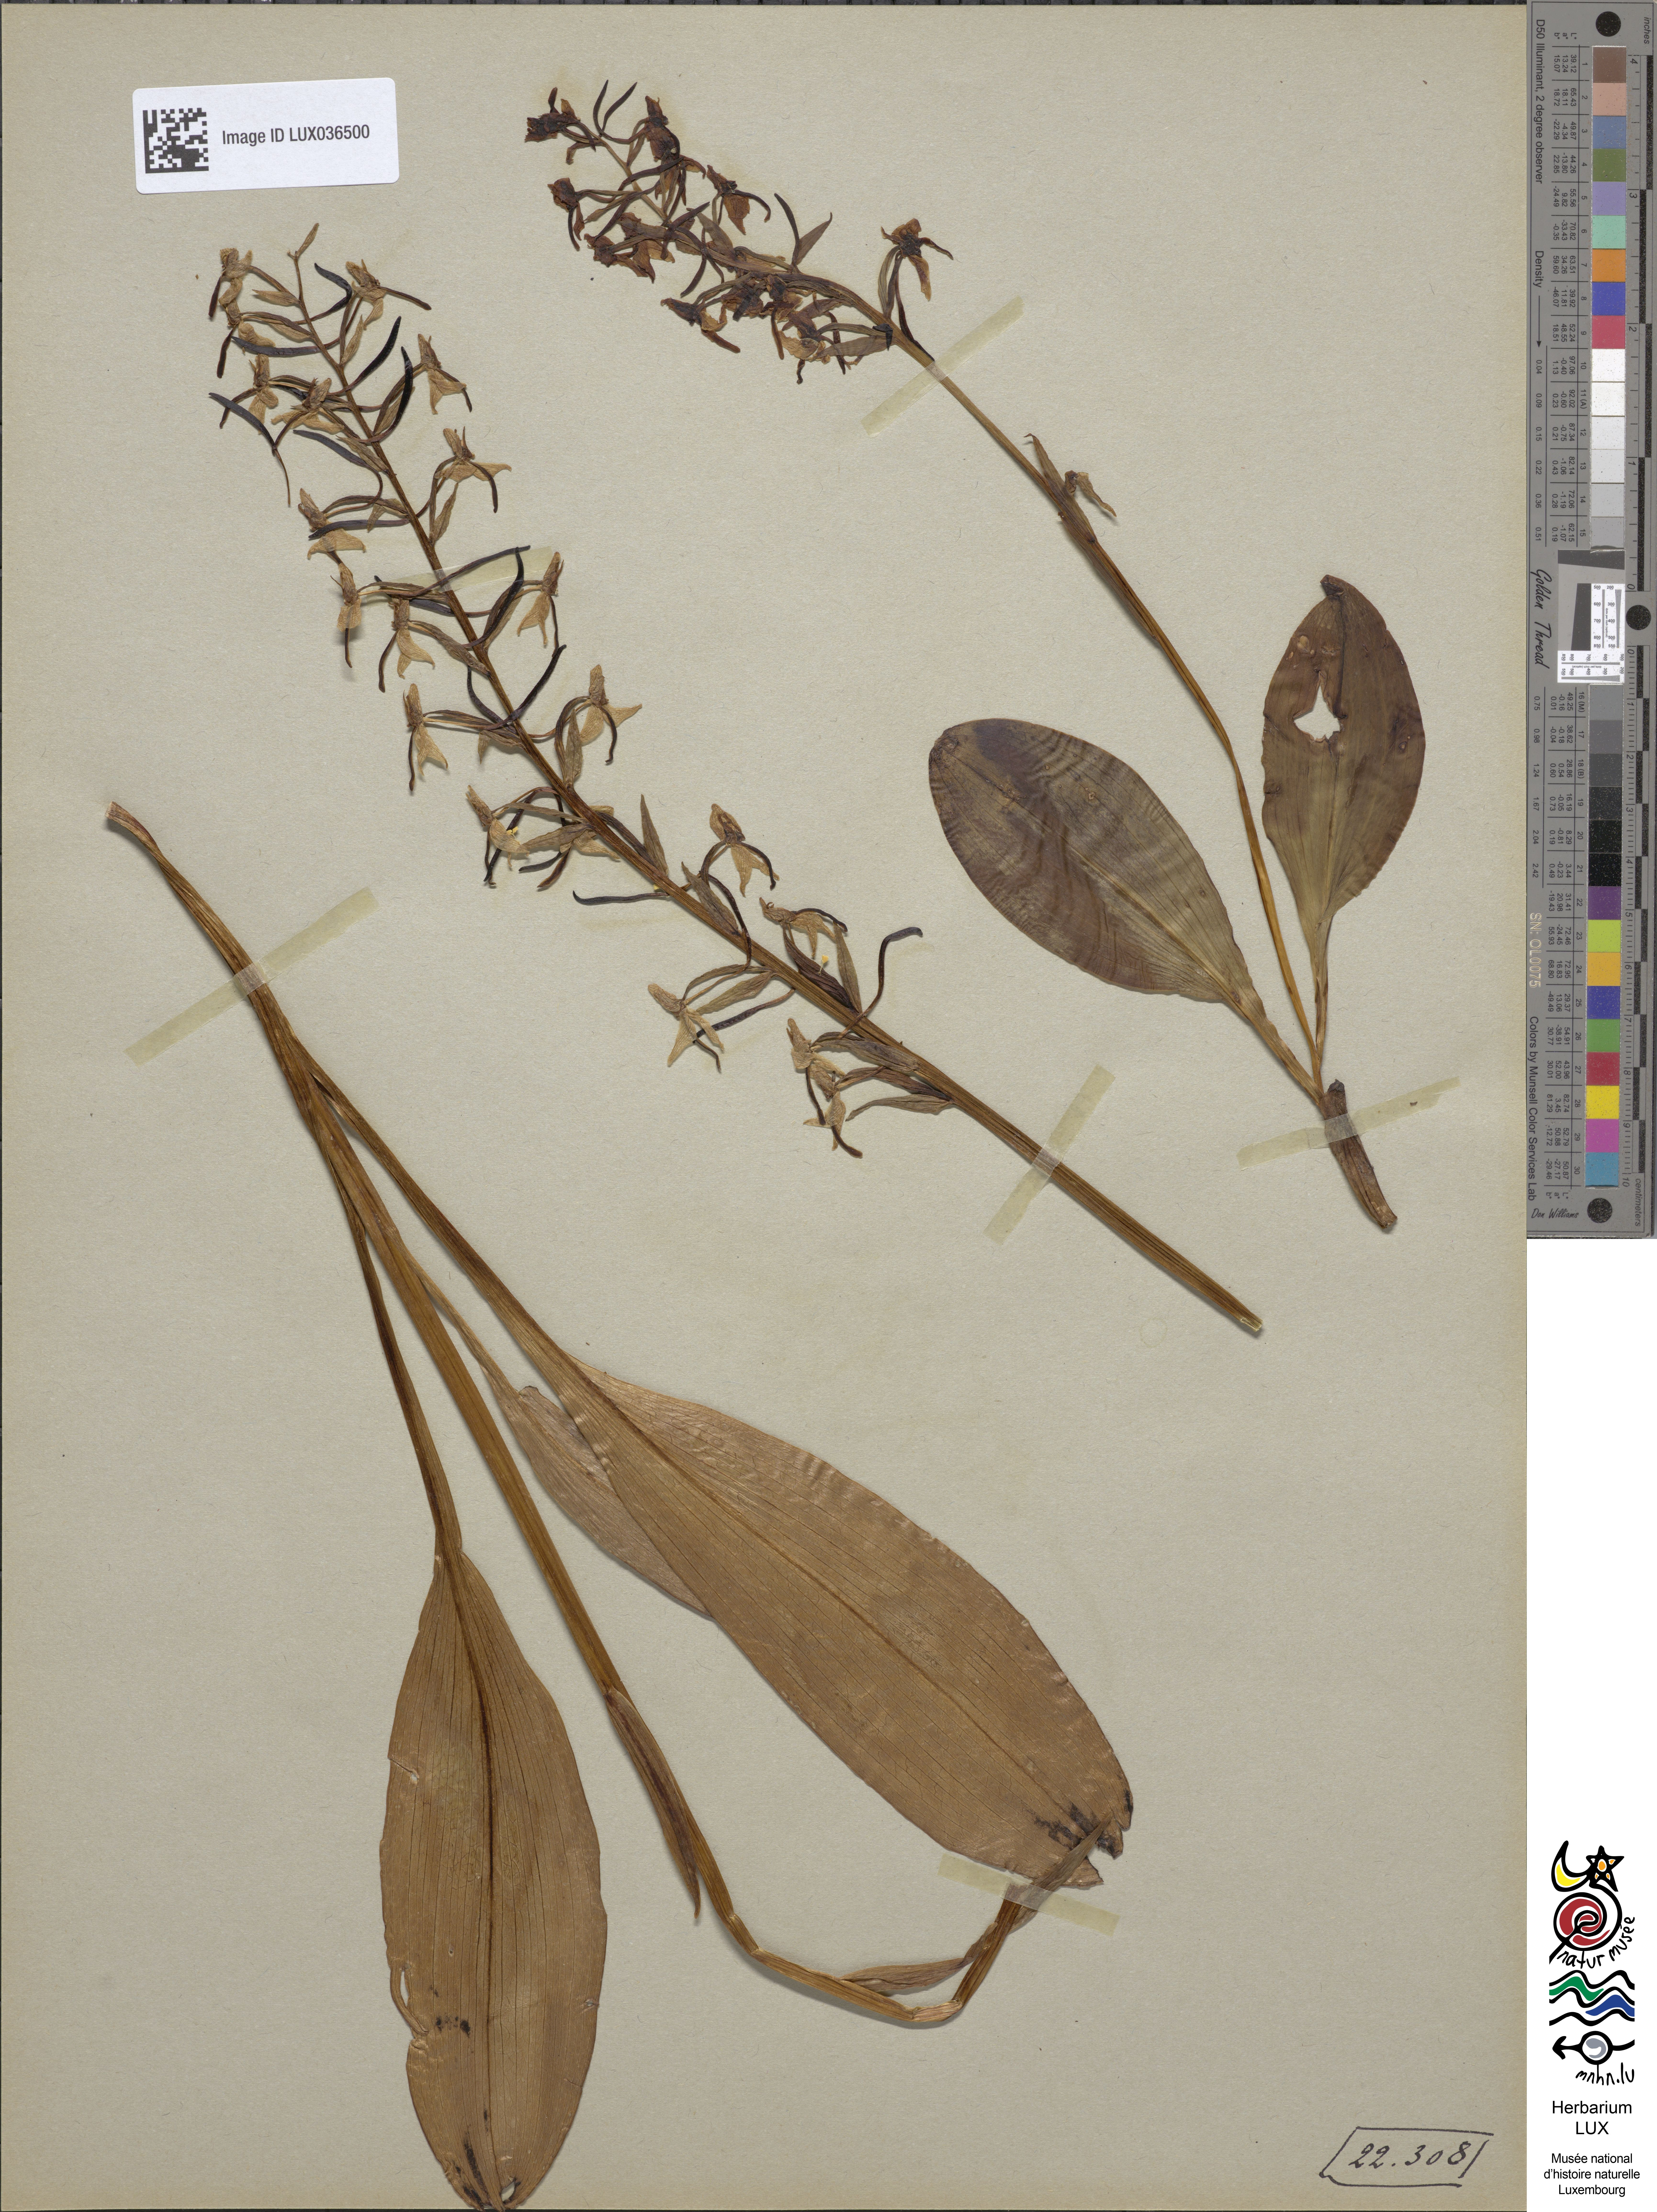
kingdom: Plantae
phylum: Tracheophyta
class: Liliopsida
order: Asparagales
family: Orchidaceae
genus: Platanthera
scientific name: Platanthera chlorantha
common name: Greater butterfly-orchid
